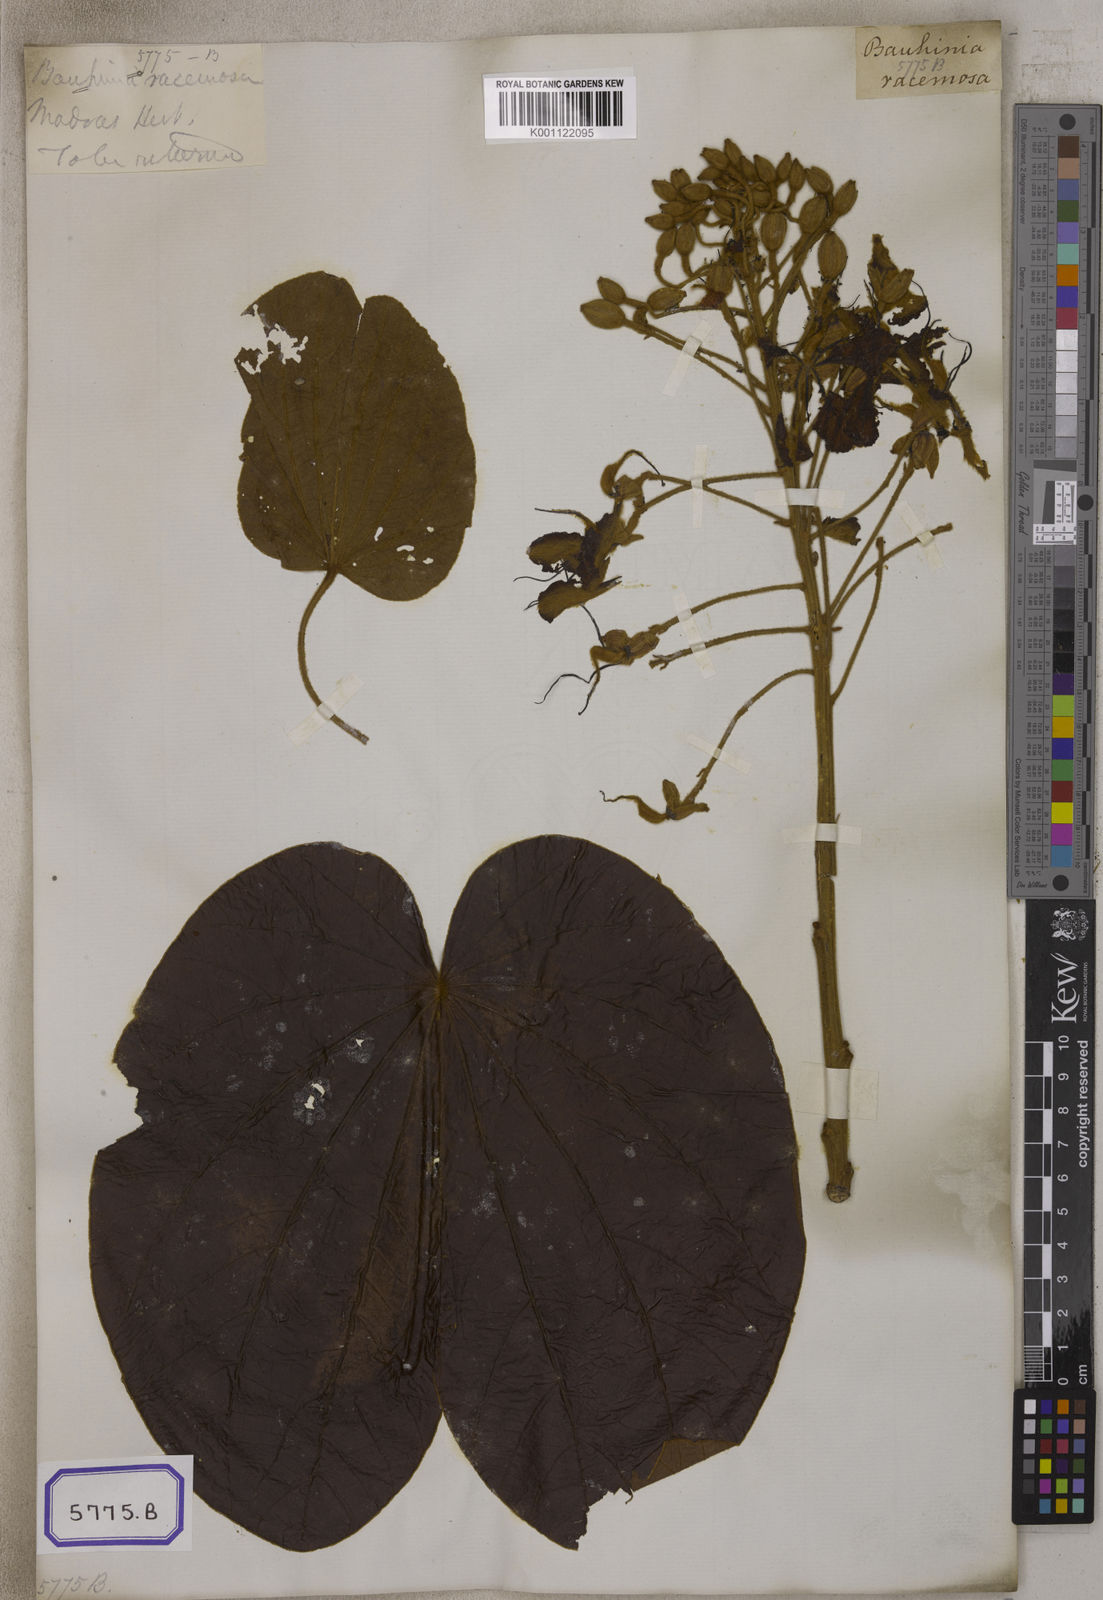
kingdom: Plantae
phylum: Tracheophyta
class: Magnoliopsida
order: Fabales
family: Fabaceae
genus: Bauhinia
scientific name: Bauhinia
